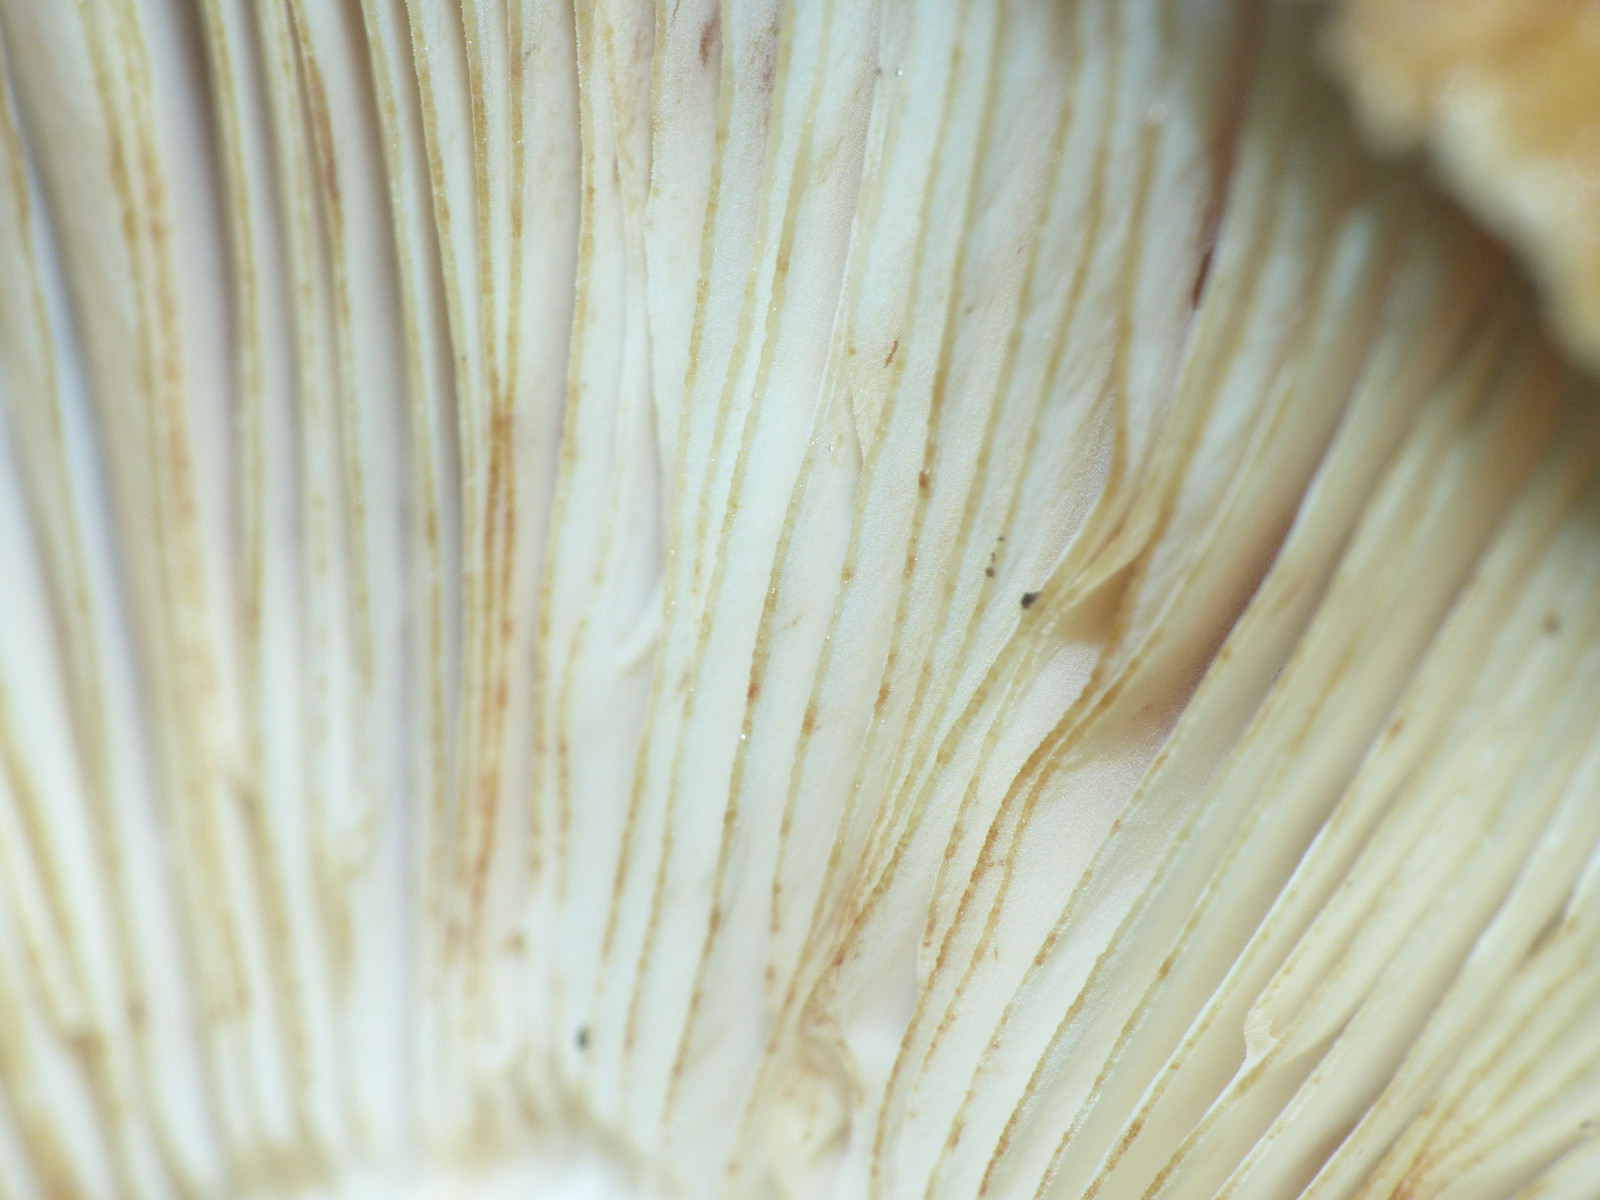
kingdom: Fungi
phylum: Basidiomycota
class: Agaricomycetes
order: Russulales
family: Russulaceae
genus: Russula
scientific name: Russula foetens
